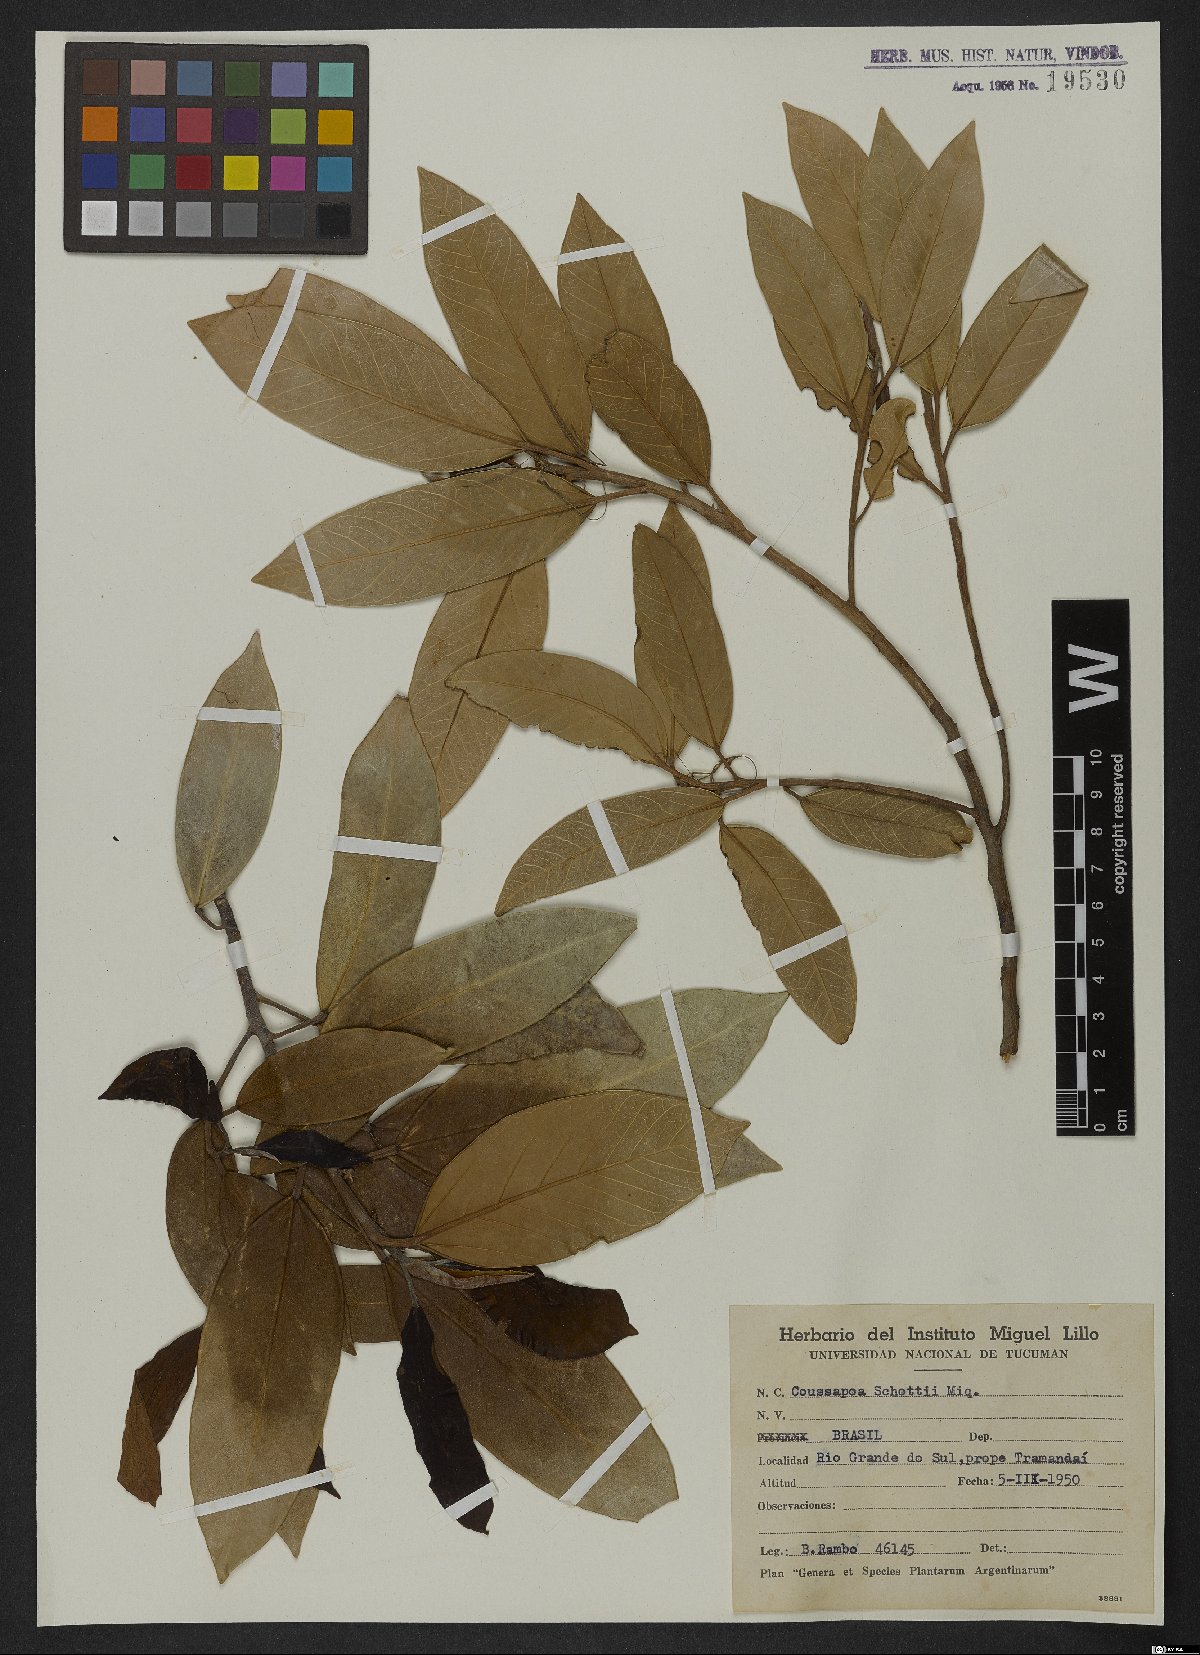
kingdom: Plantae
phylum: Tracheophyta
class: Magnoliopsida
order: Rosales
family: Urticaceae
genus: Coussapoa
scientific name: Coussapoa microcarpa
